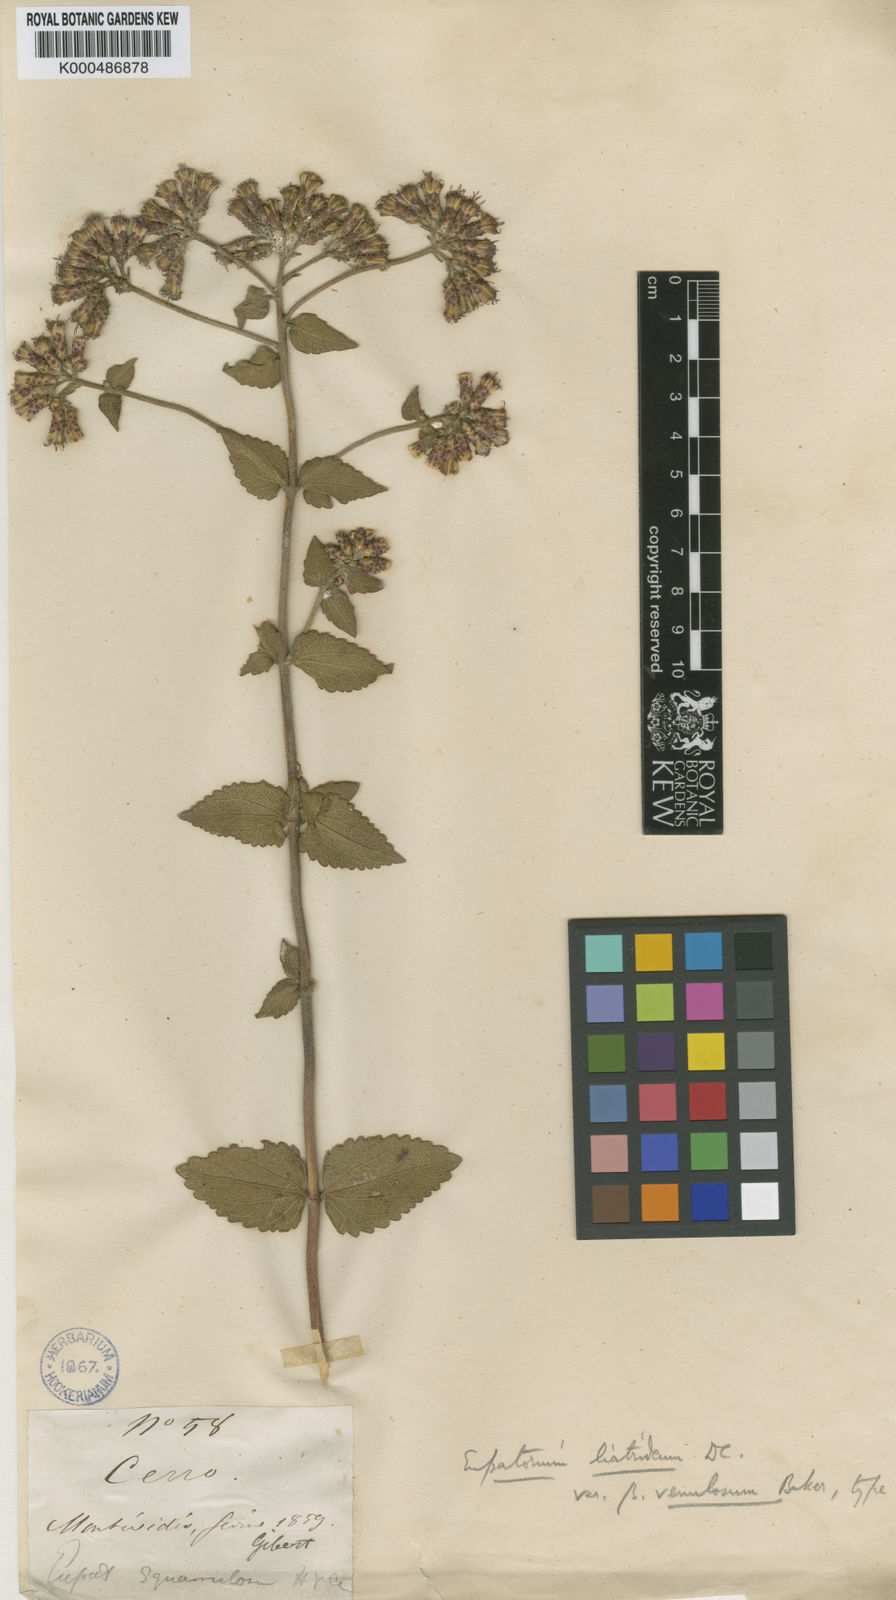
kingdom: Plantae
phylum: Tracheophyta
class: Magnoliopsida
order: Asterales
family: Asteraceae
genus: Chromolaena
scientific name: Chromolaena
